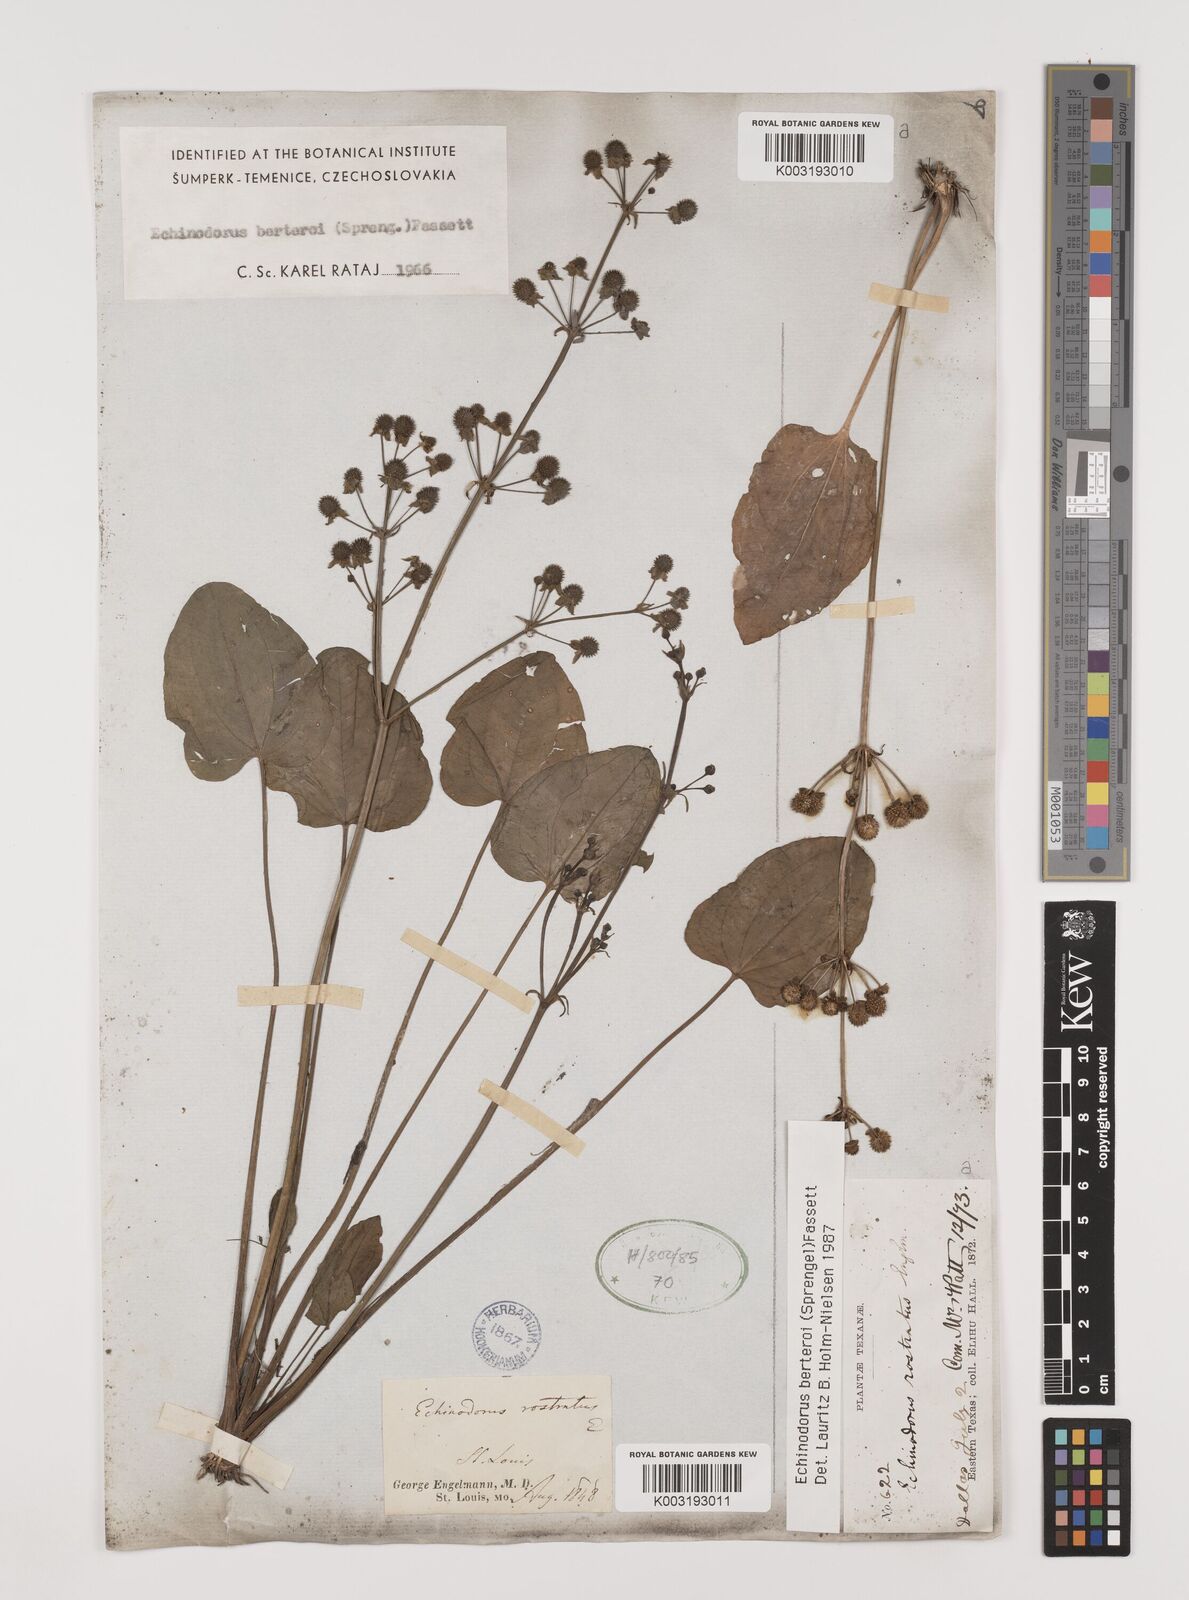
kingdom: Plantae
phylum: Tracheophyta
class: Liliopsida
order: Alismatales
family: Alismataceae
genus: Echinodorus
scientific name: Echinodorus berteroi
